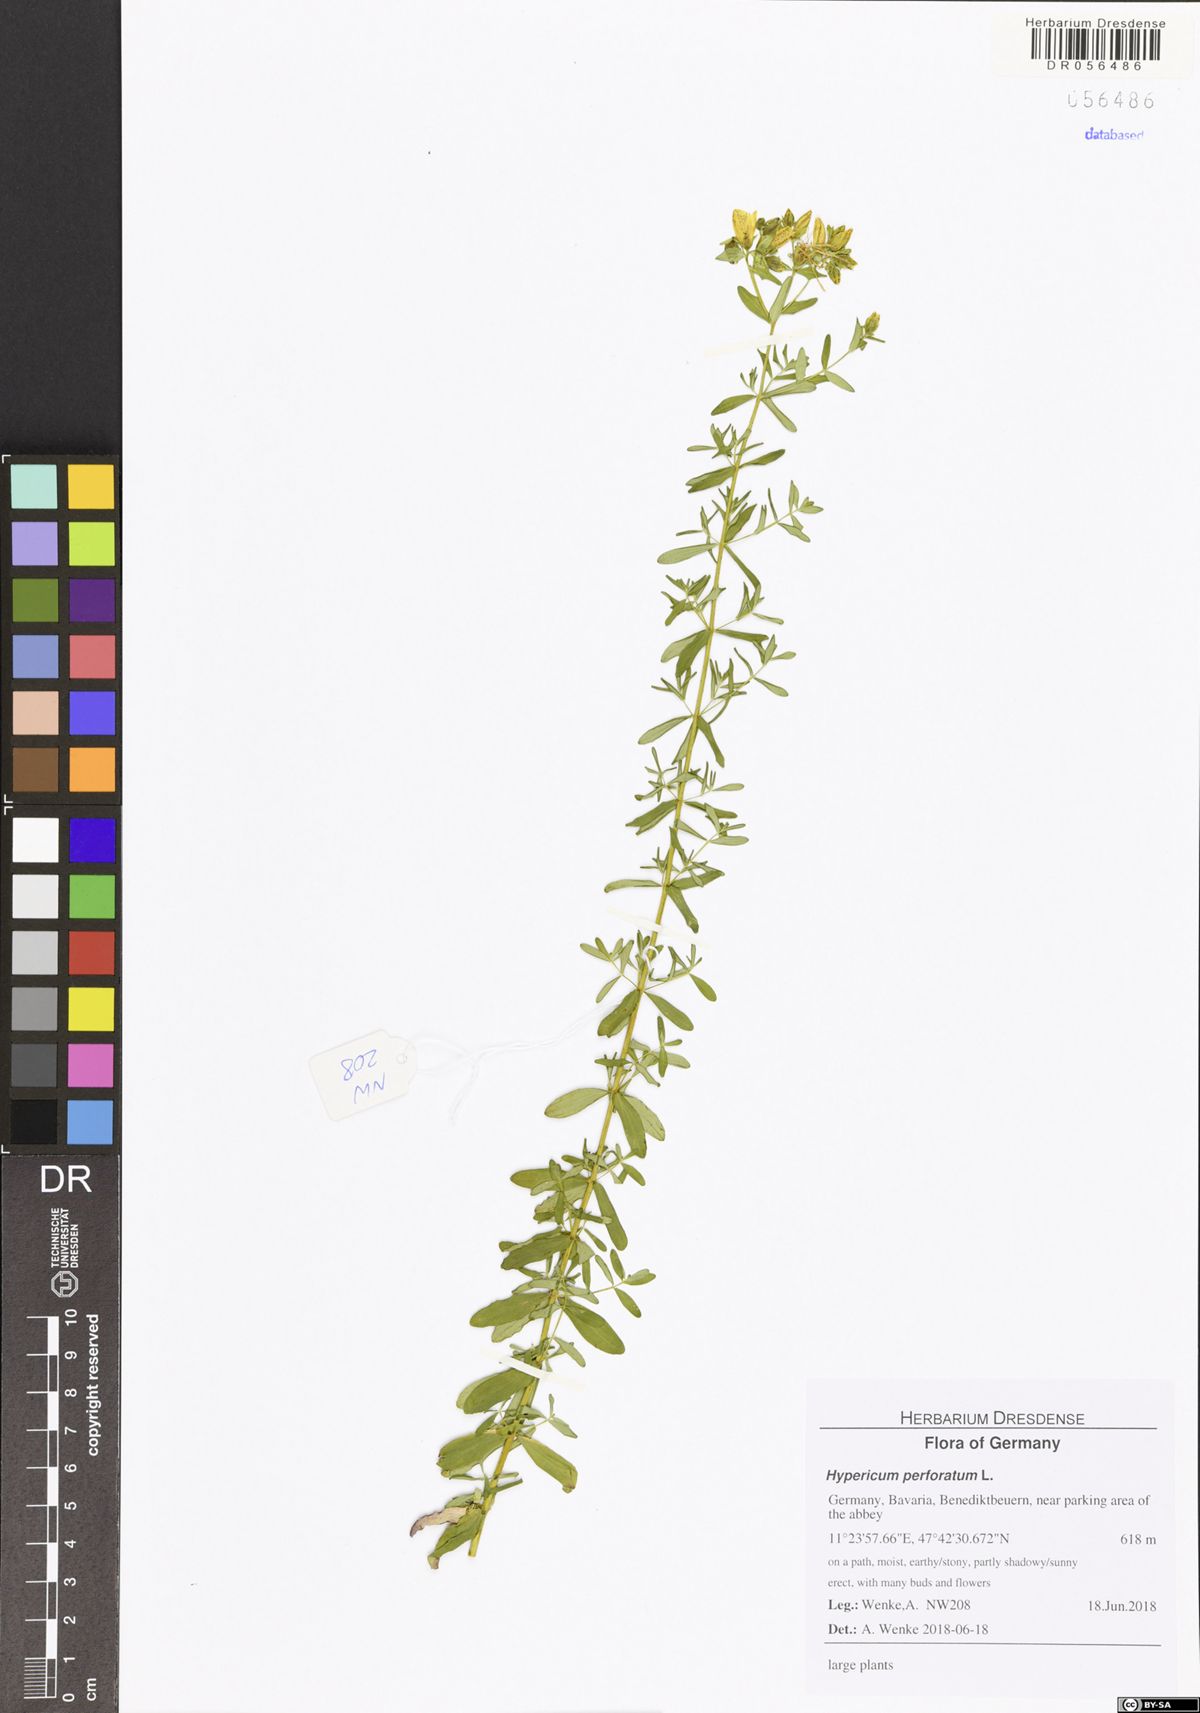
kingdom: Plantae
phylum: Tracheophyta
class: Magnoliopsida
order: Malpighiales
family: Hypericaceae
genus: Hypericum
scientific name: Hypericum perforatum
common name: Common st. johnswort
